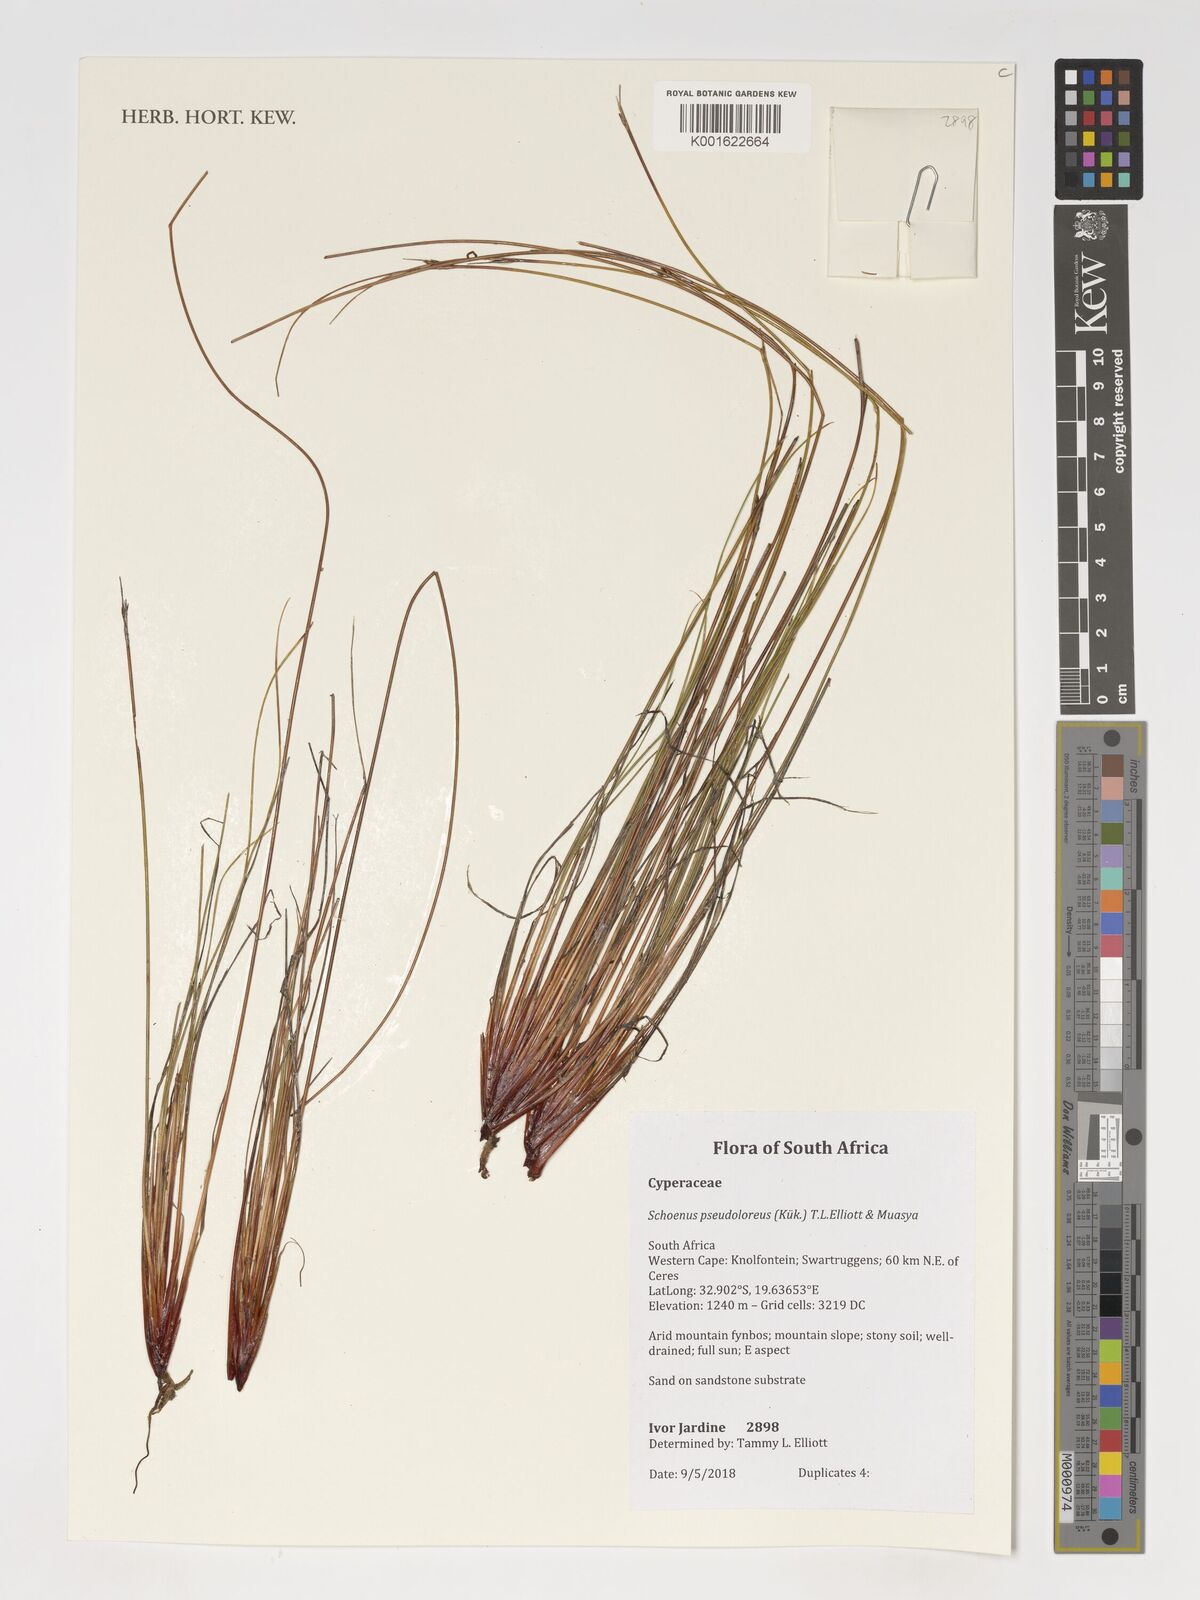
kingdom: Plantae
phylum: Tracheophyta
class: Liliopsida
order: Poales
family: Cyperaceae
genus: Schoenus
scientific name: Schoenus pseudoloreus
